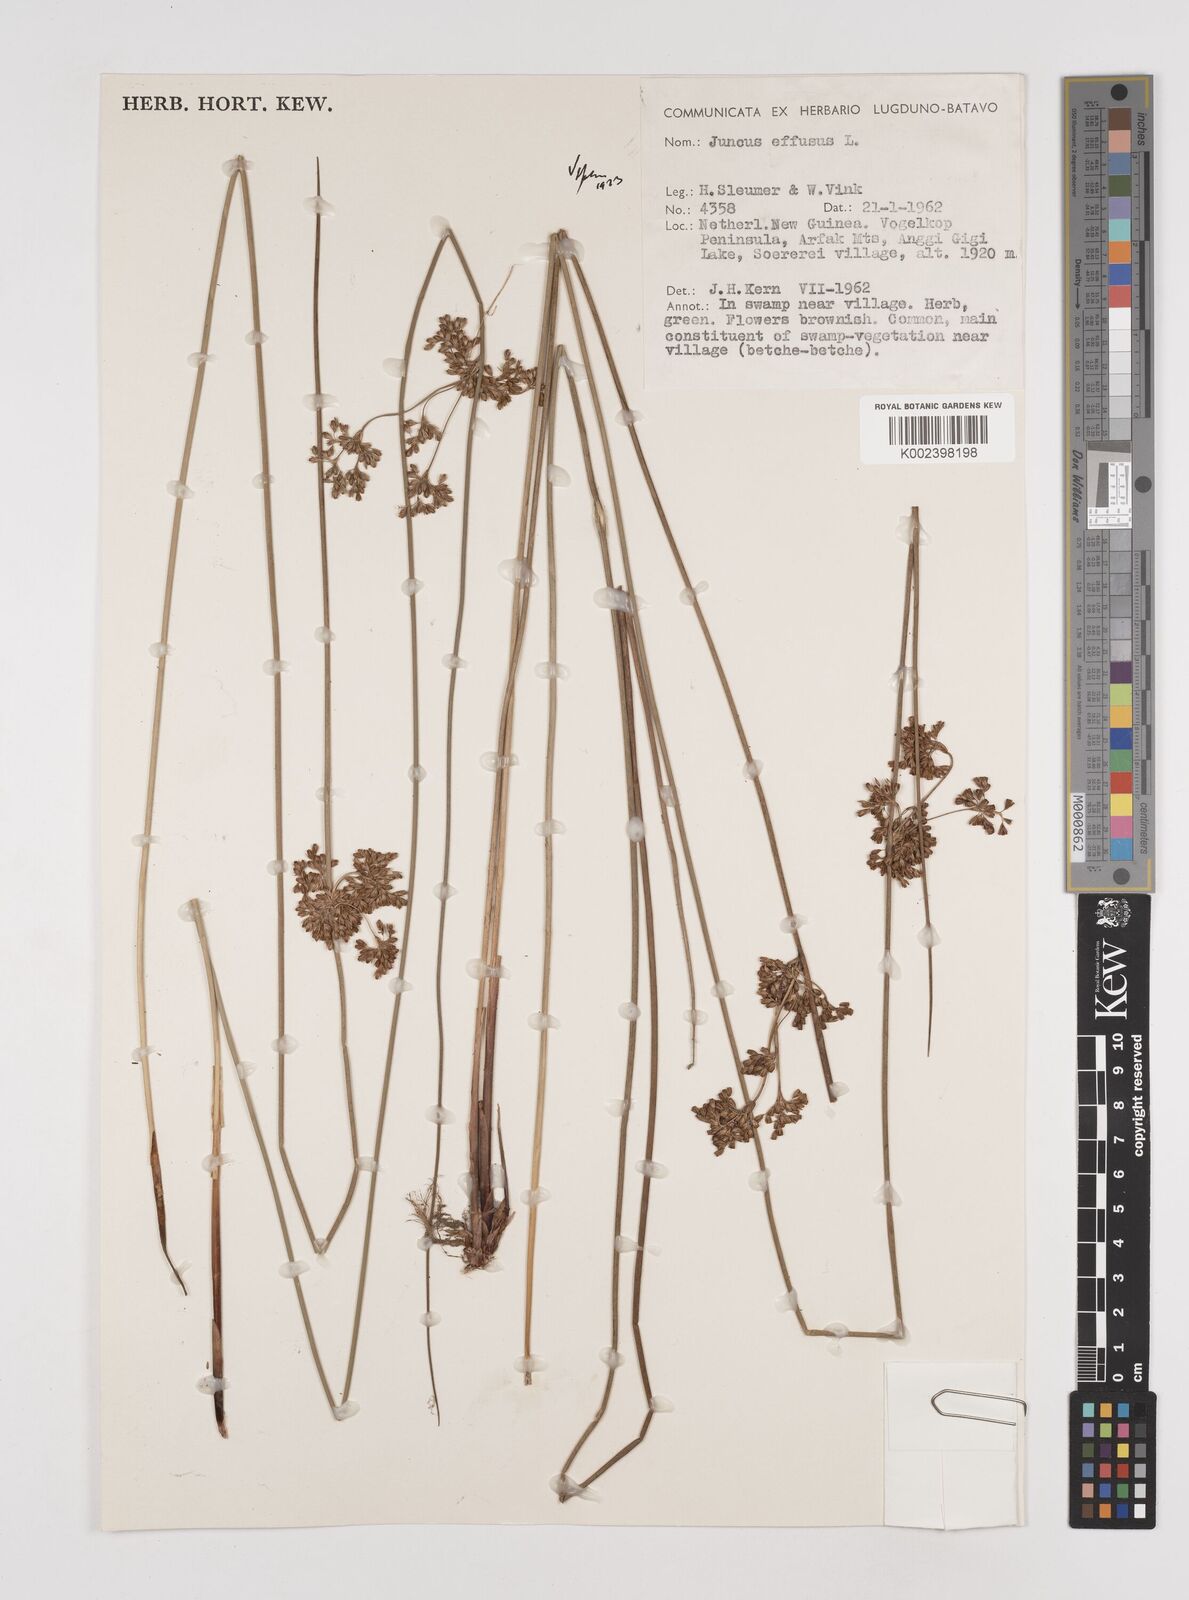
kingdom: Plantae
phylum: Tracheophyta
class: Liliopsida
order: Poales
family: Juncaceae
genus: Juncus
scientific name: Juncus decipiens
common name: Lamp rush
